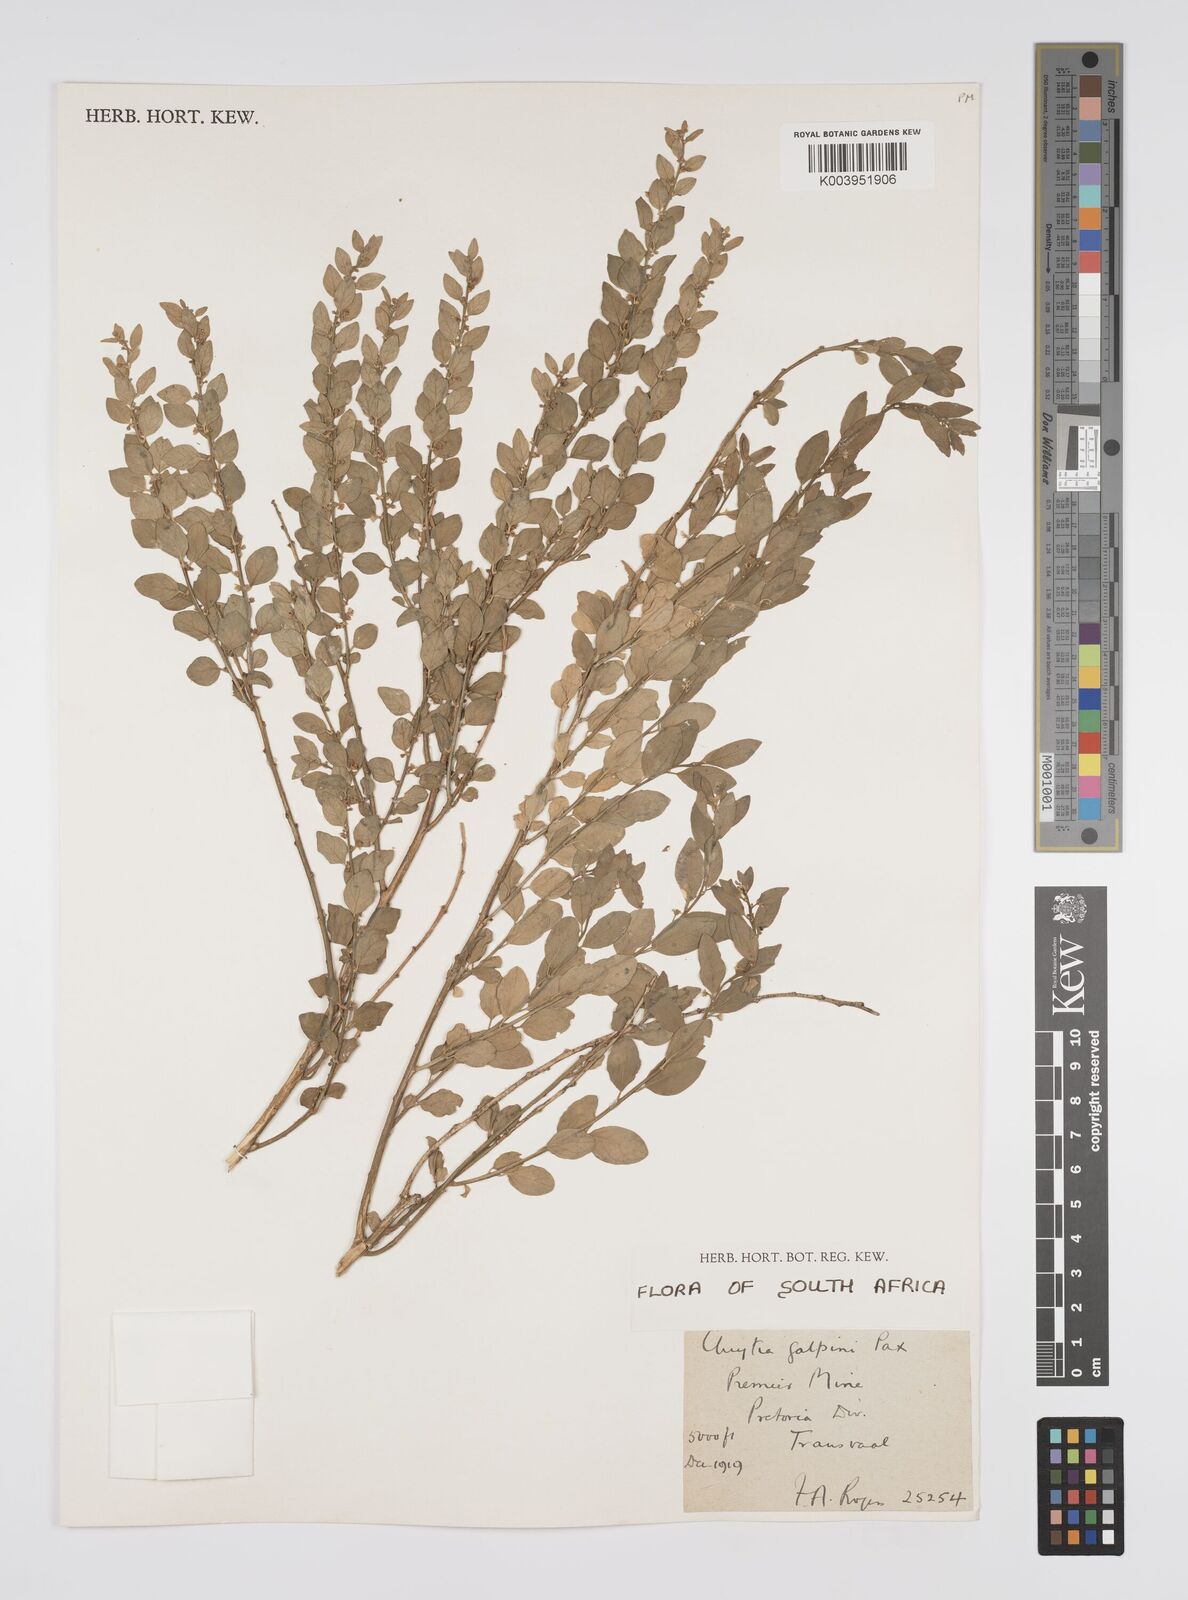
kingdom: Plantae
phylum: Tracheophyta
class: Magnoliopsida
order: Malpighiales
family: Peraceae
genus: Clutia
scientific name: Clutia galpinii
